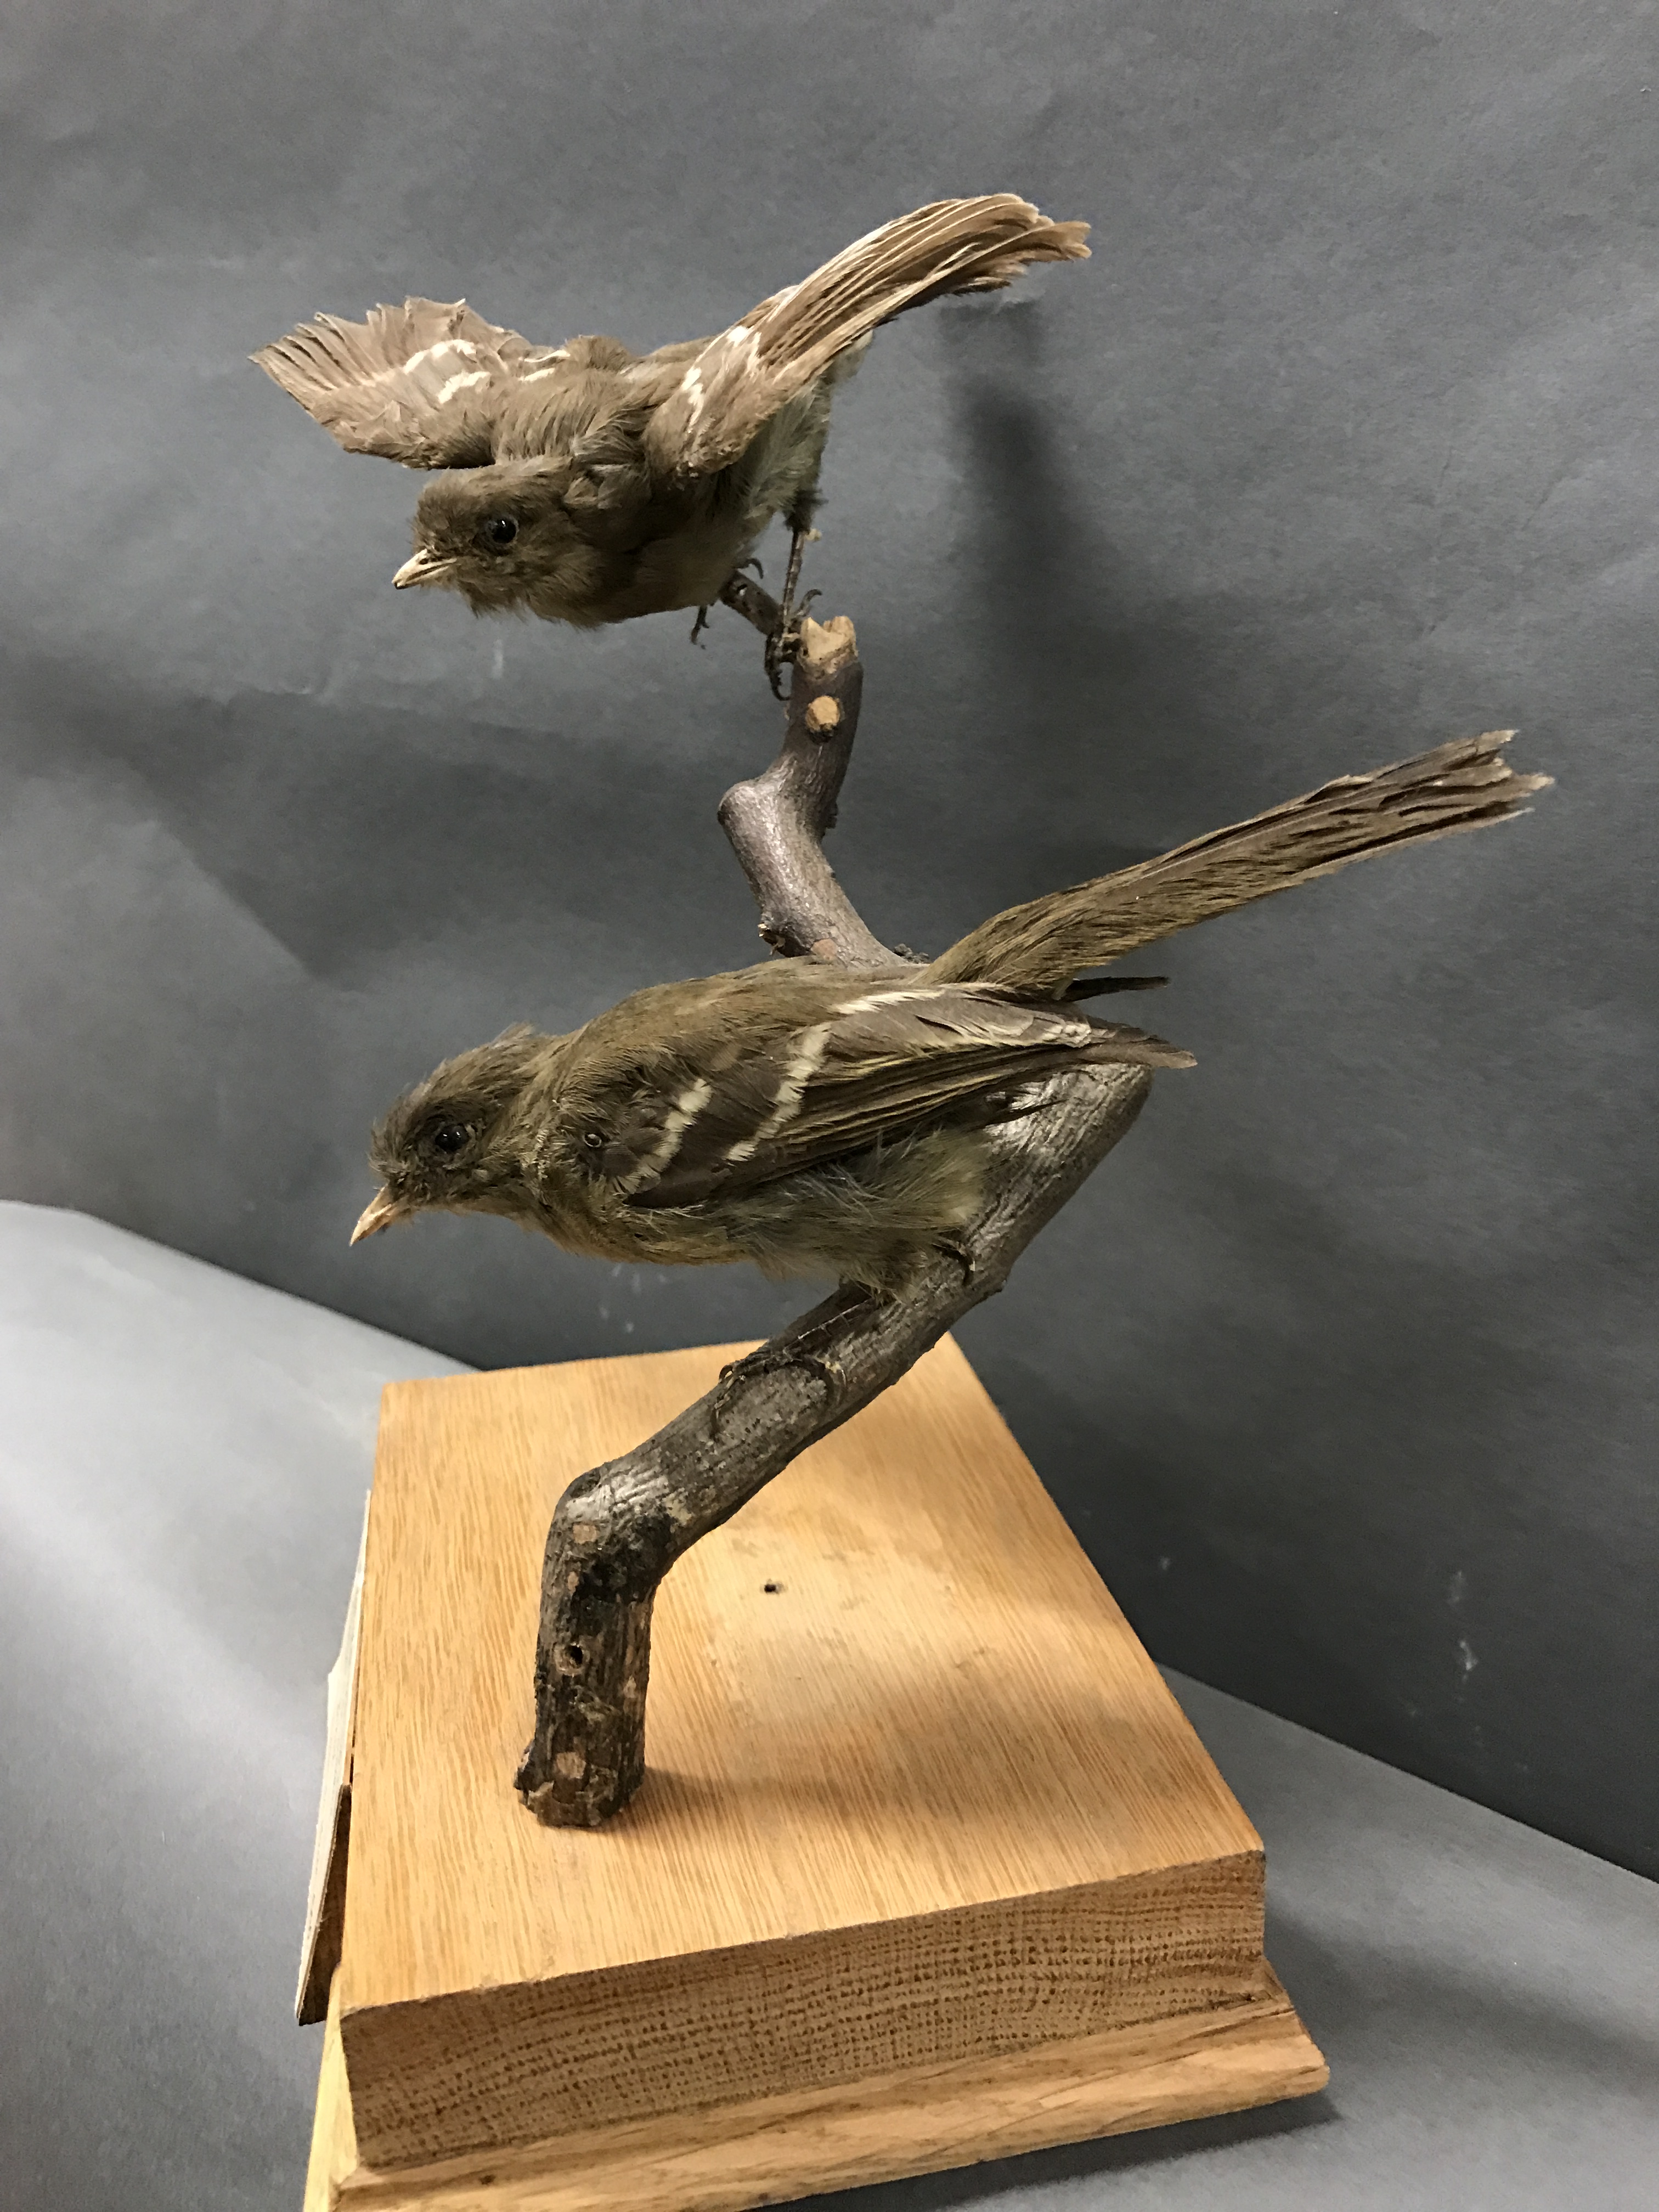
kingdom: Animalia
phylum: Chordata
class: Aves
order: Passeriformes
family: Tyrannidae
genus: Elaenia
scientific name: Elaenia obscura
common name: Highland elaenia
